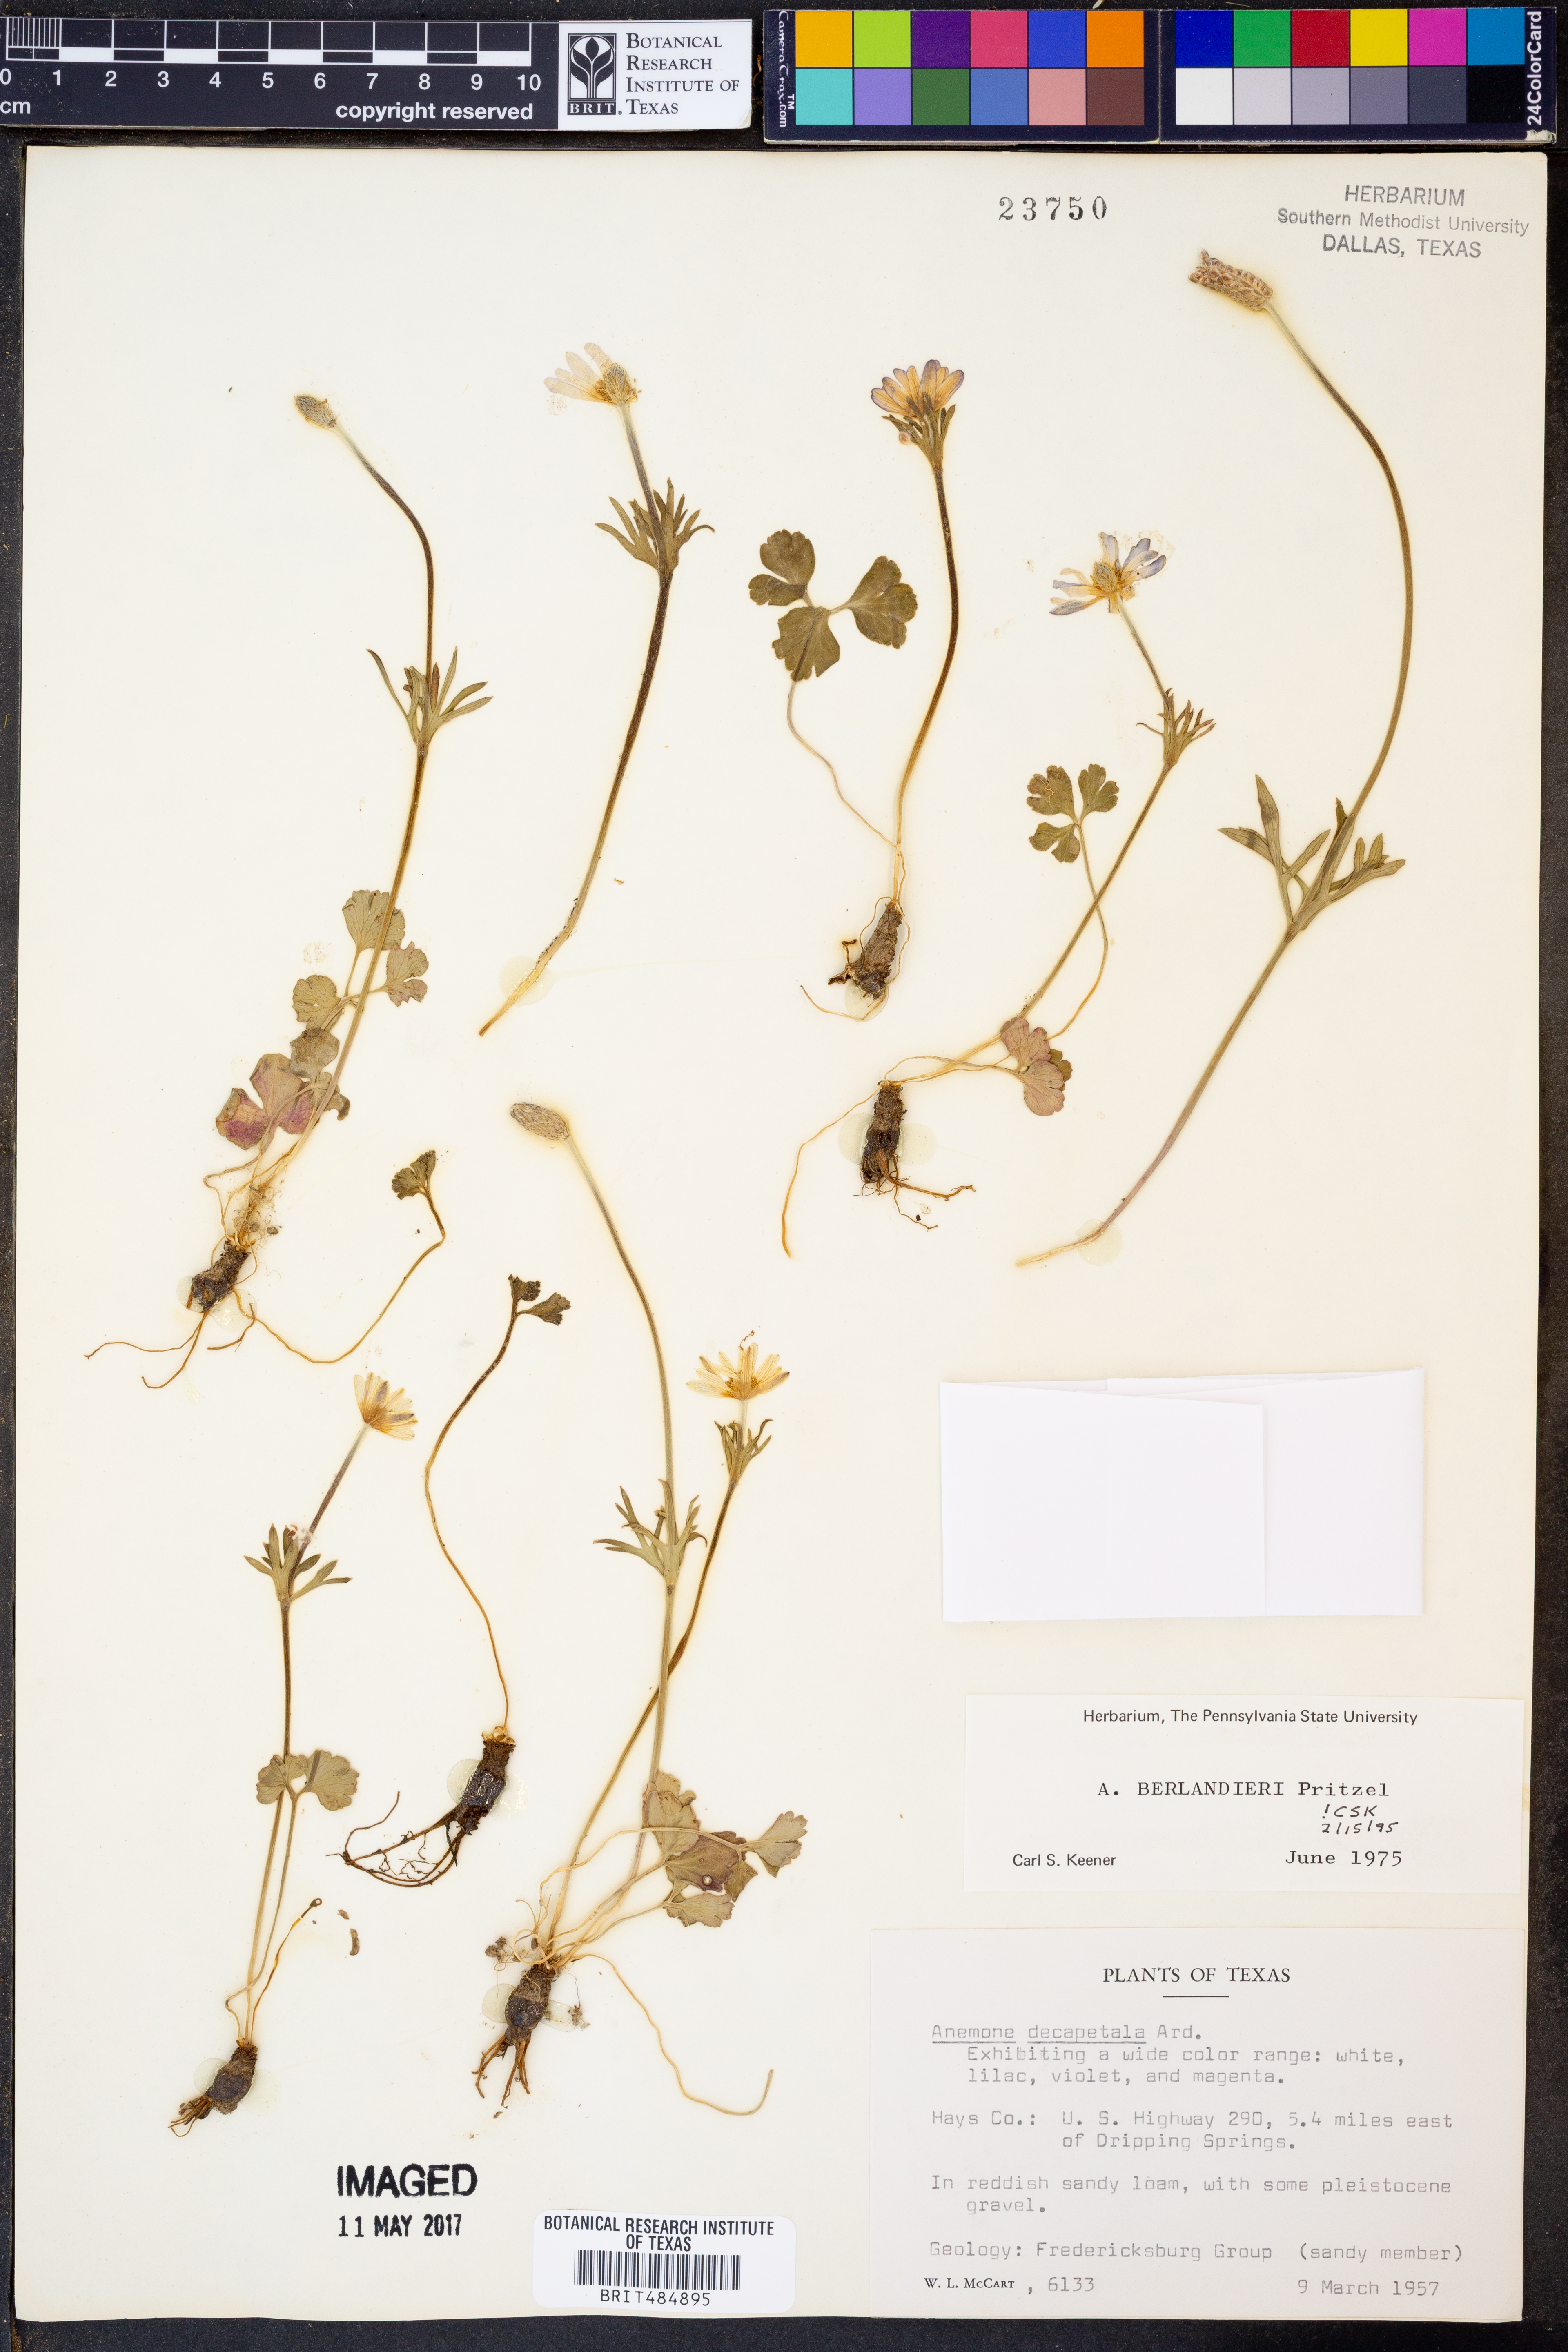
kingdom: Plantae
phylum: Tracheophyta
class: Magnoliopsida
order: Ranunculales
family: Ranunculaceae
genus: Anemone
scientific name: Anemone berlandieri
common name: Ten-petal anemone
